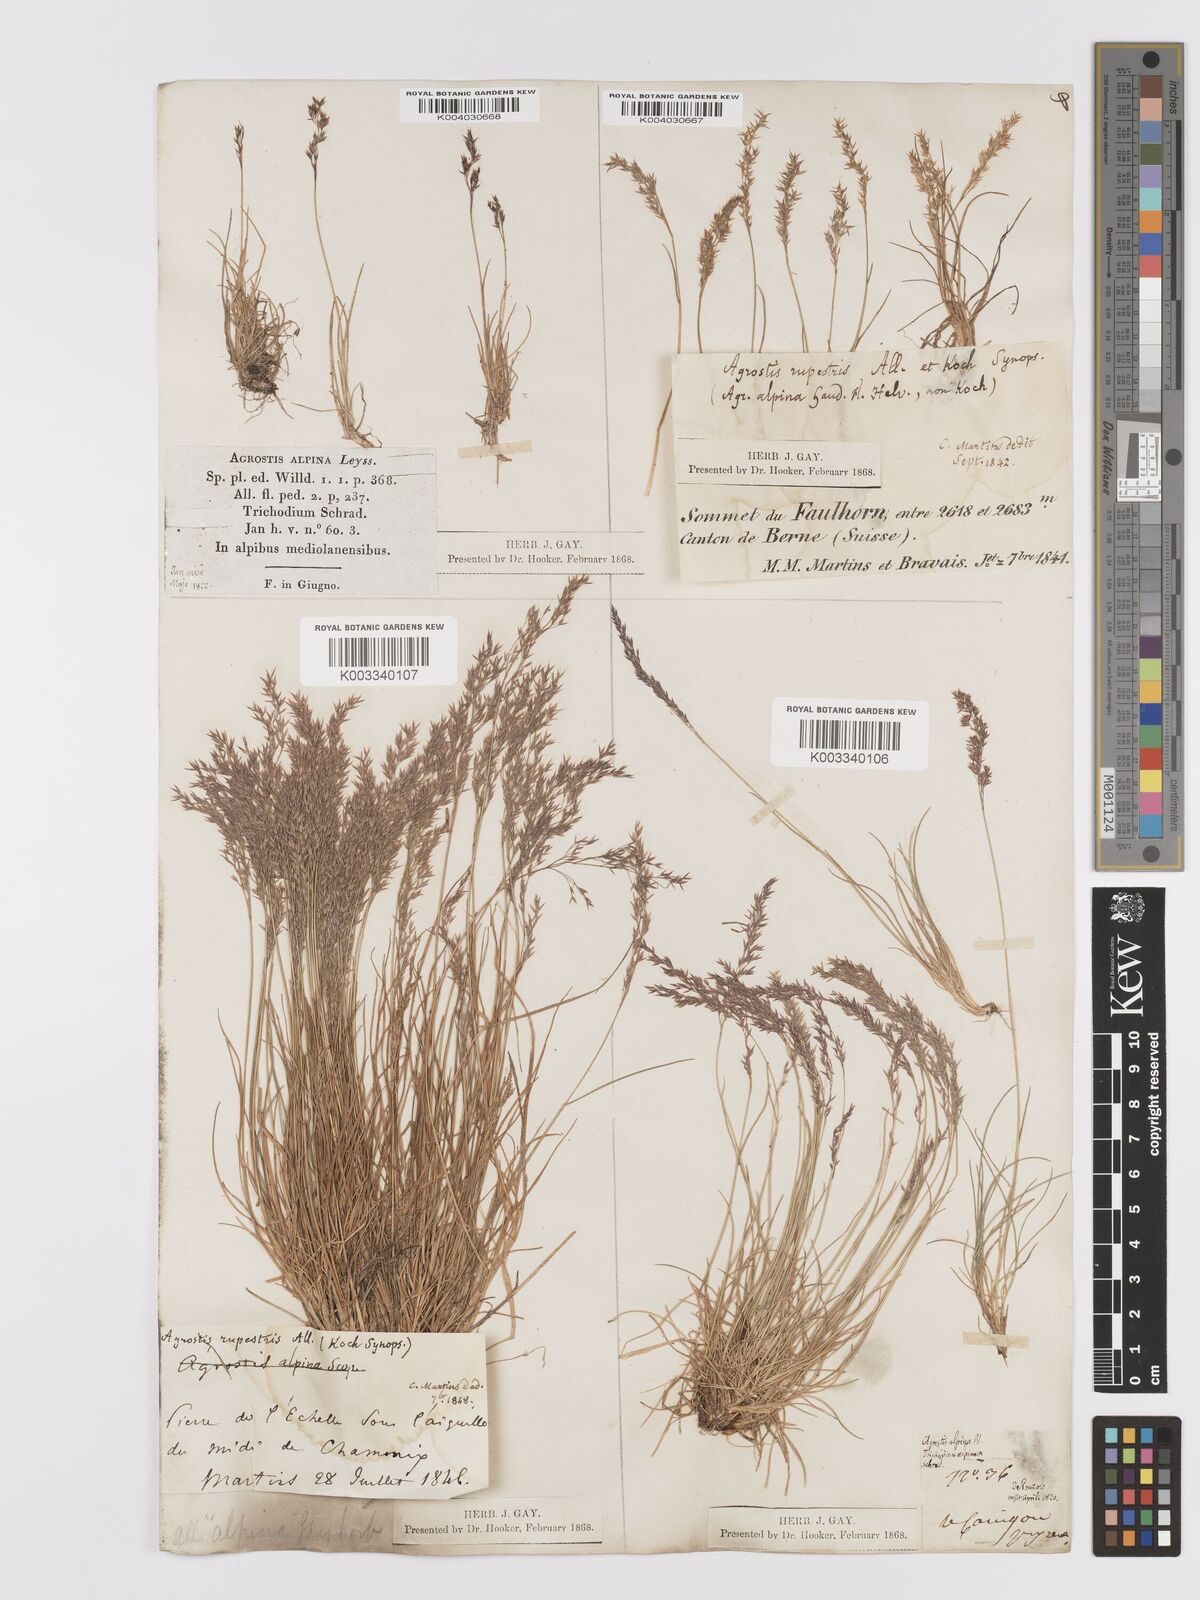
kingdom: Plantae
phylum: Tracheophyta
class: Liliopsida
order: Poales
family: Poaceae
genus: Agrostis
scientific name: Agrostis rupestris
